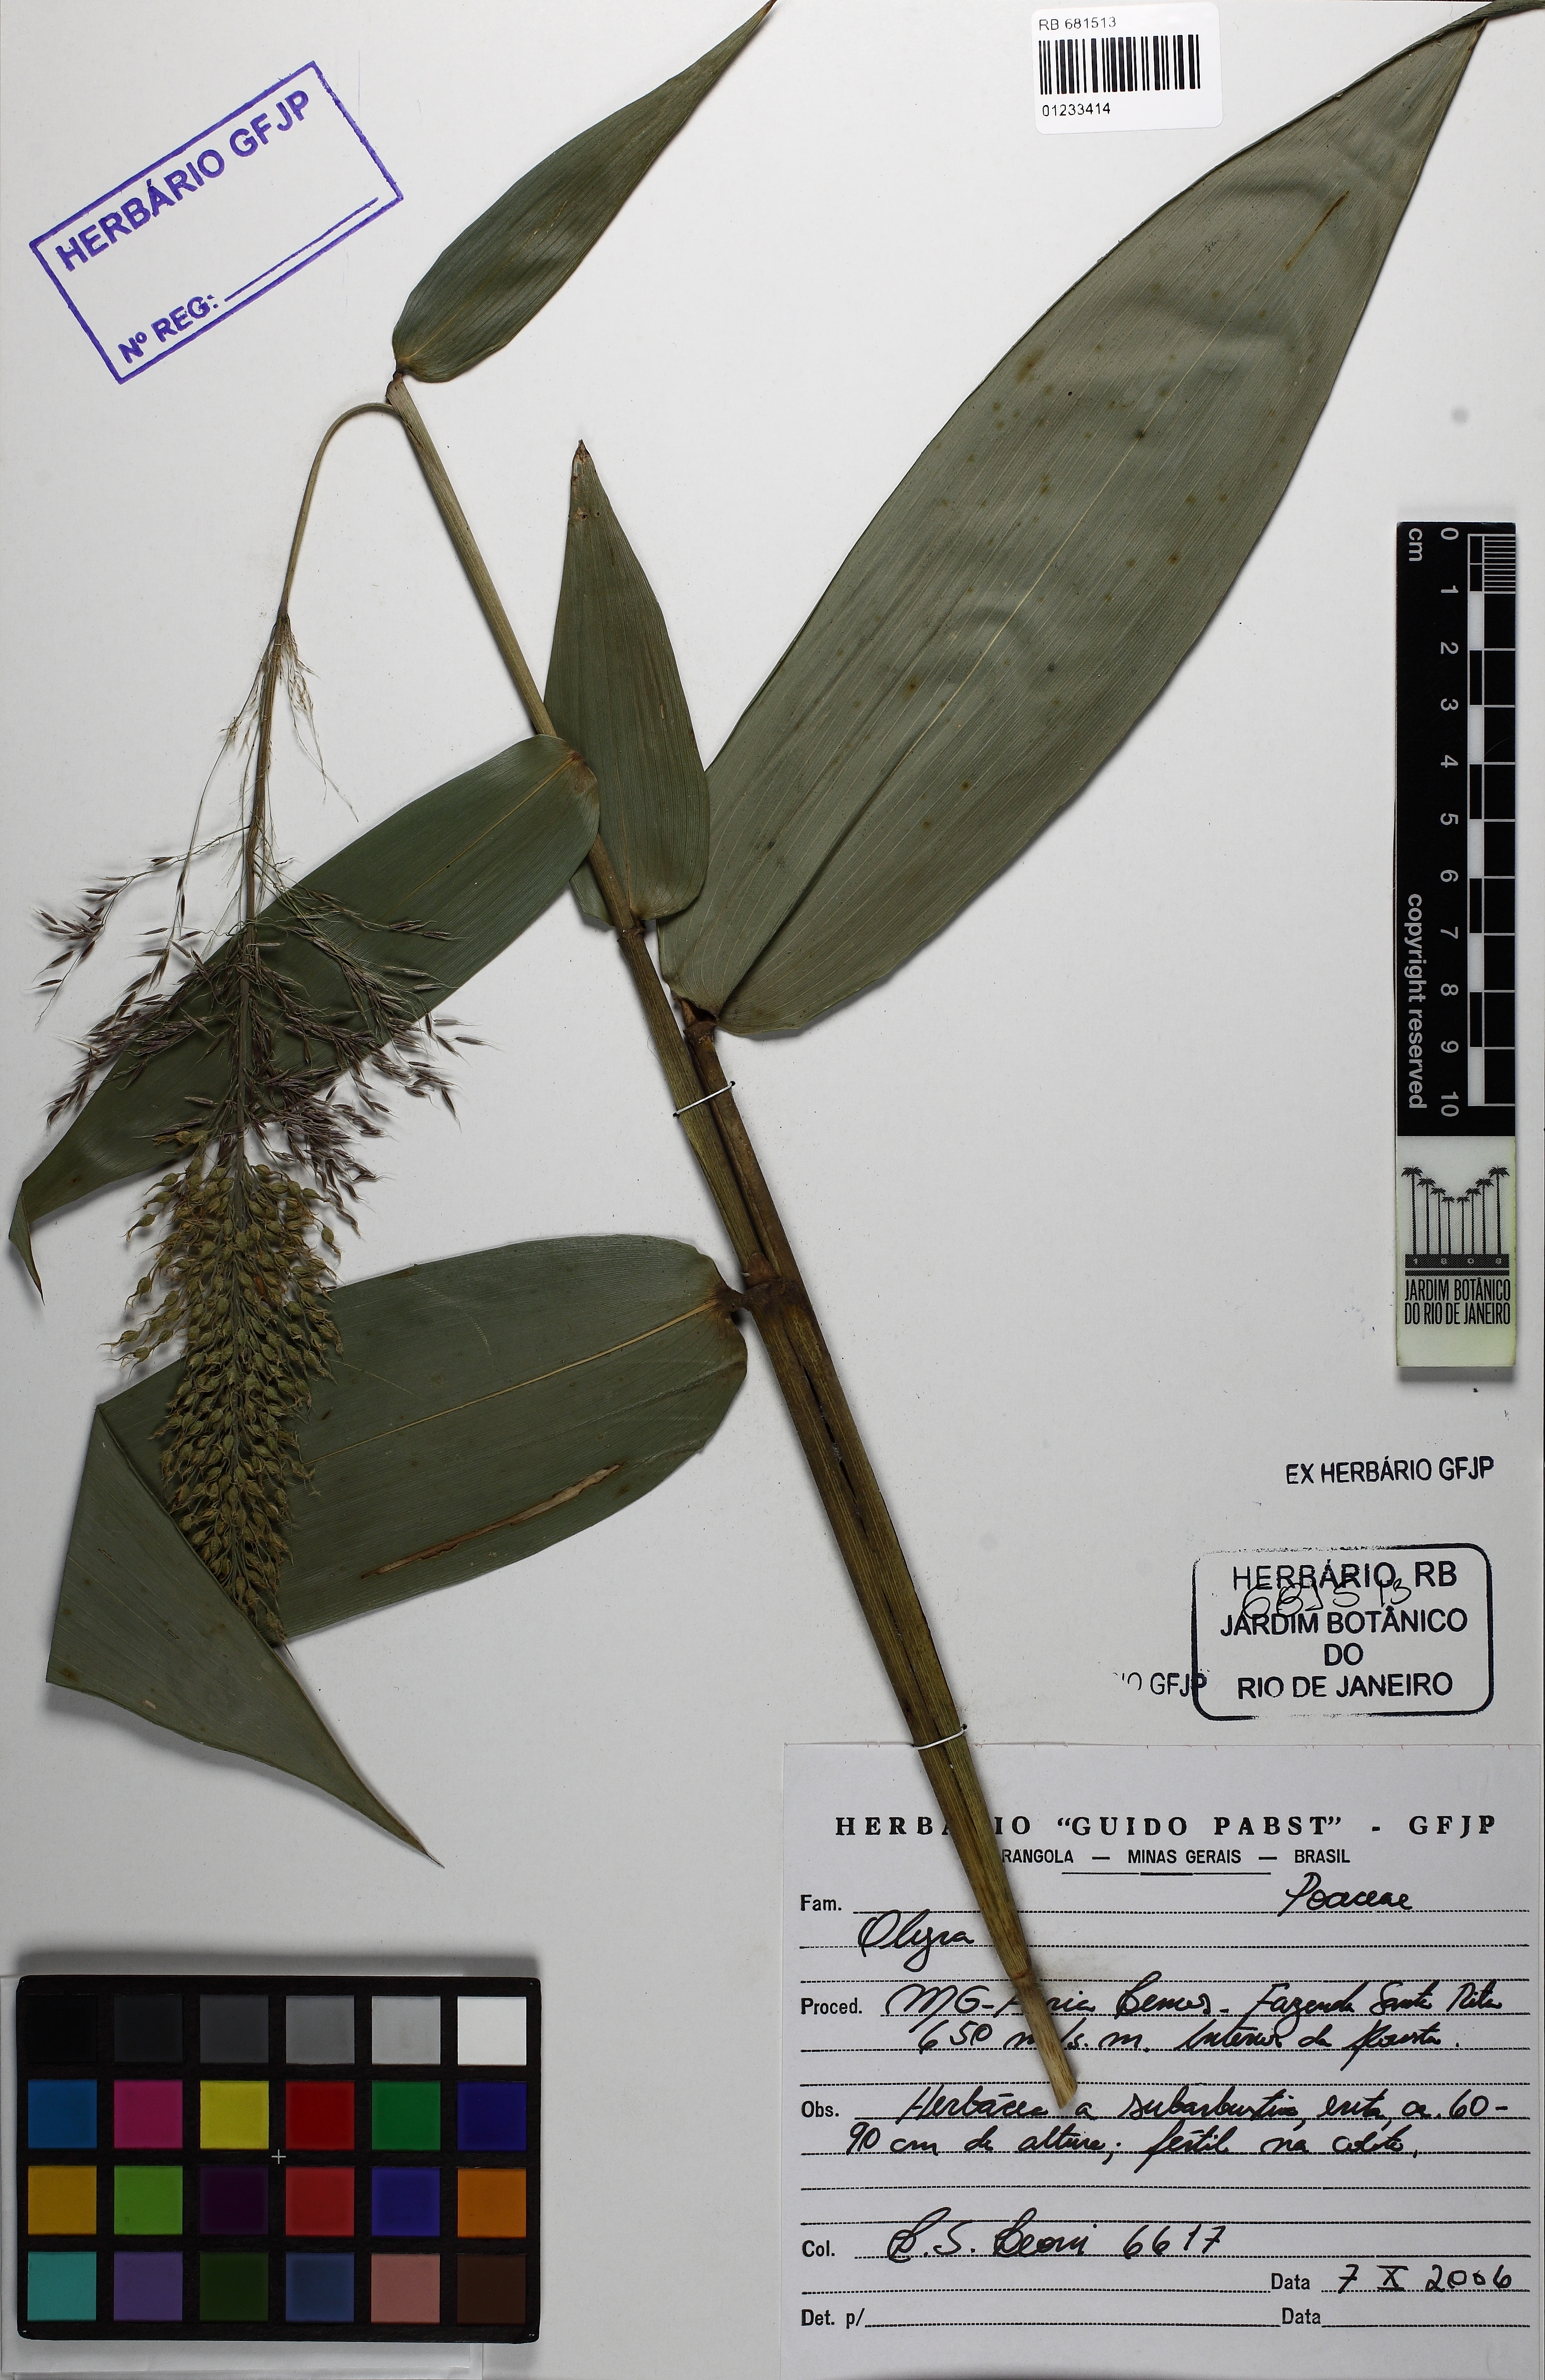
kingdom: Plantae
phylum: Tracheophyta
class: Liliopsida
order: Poales
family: Poaceae
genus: Olyra
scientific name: Olyra
